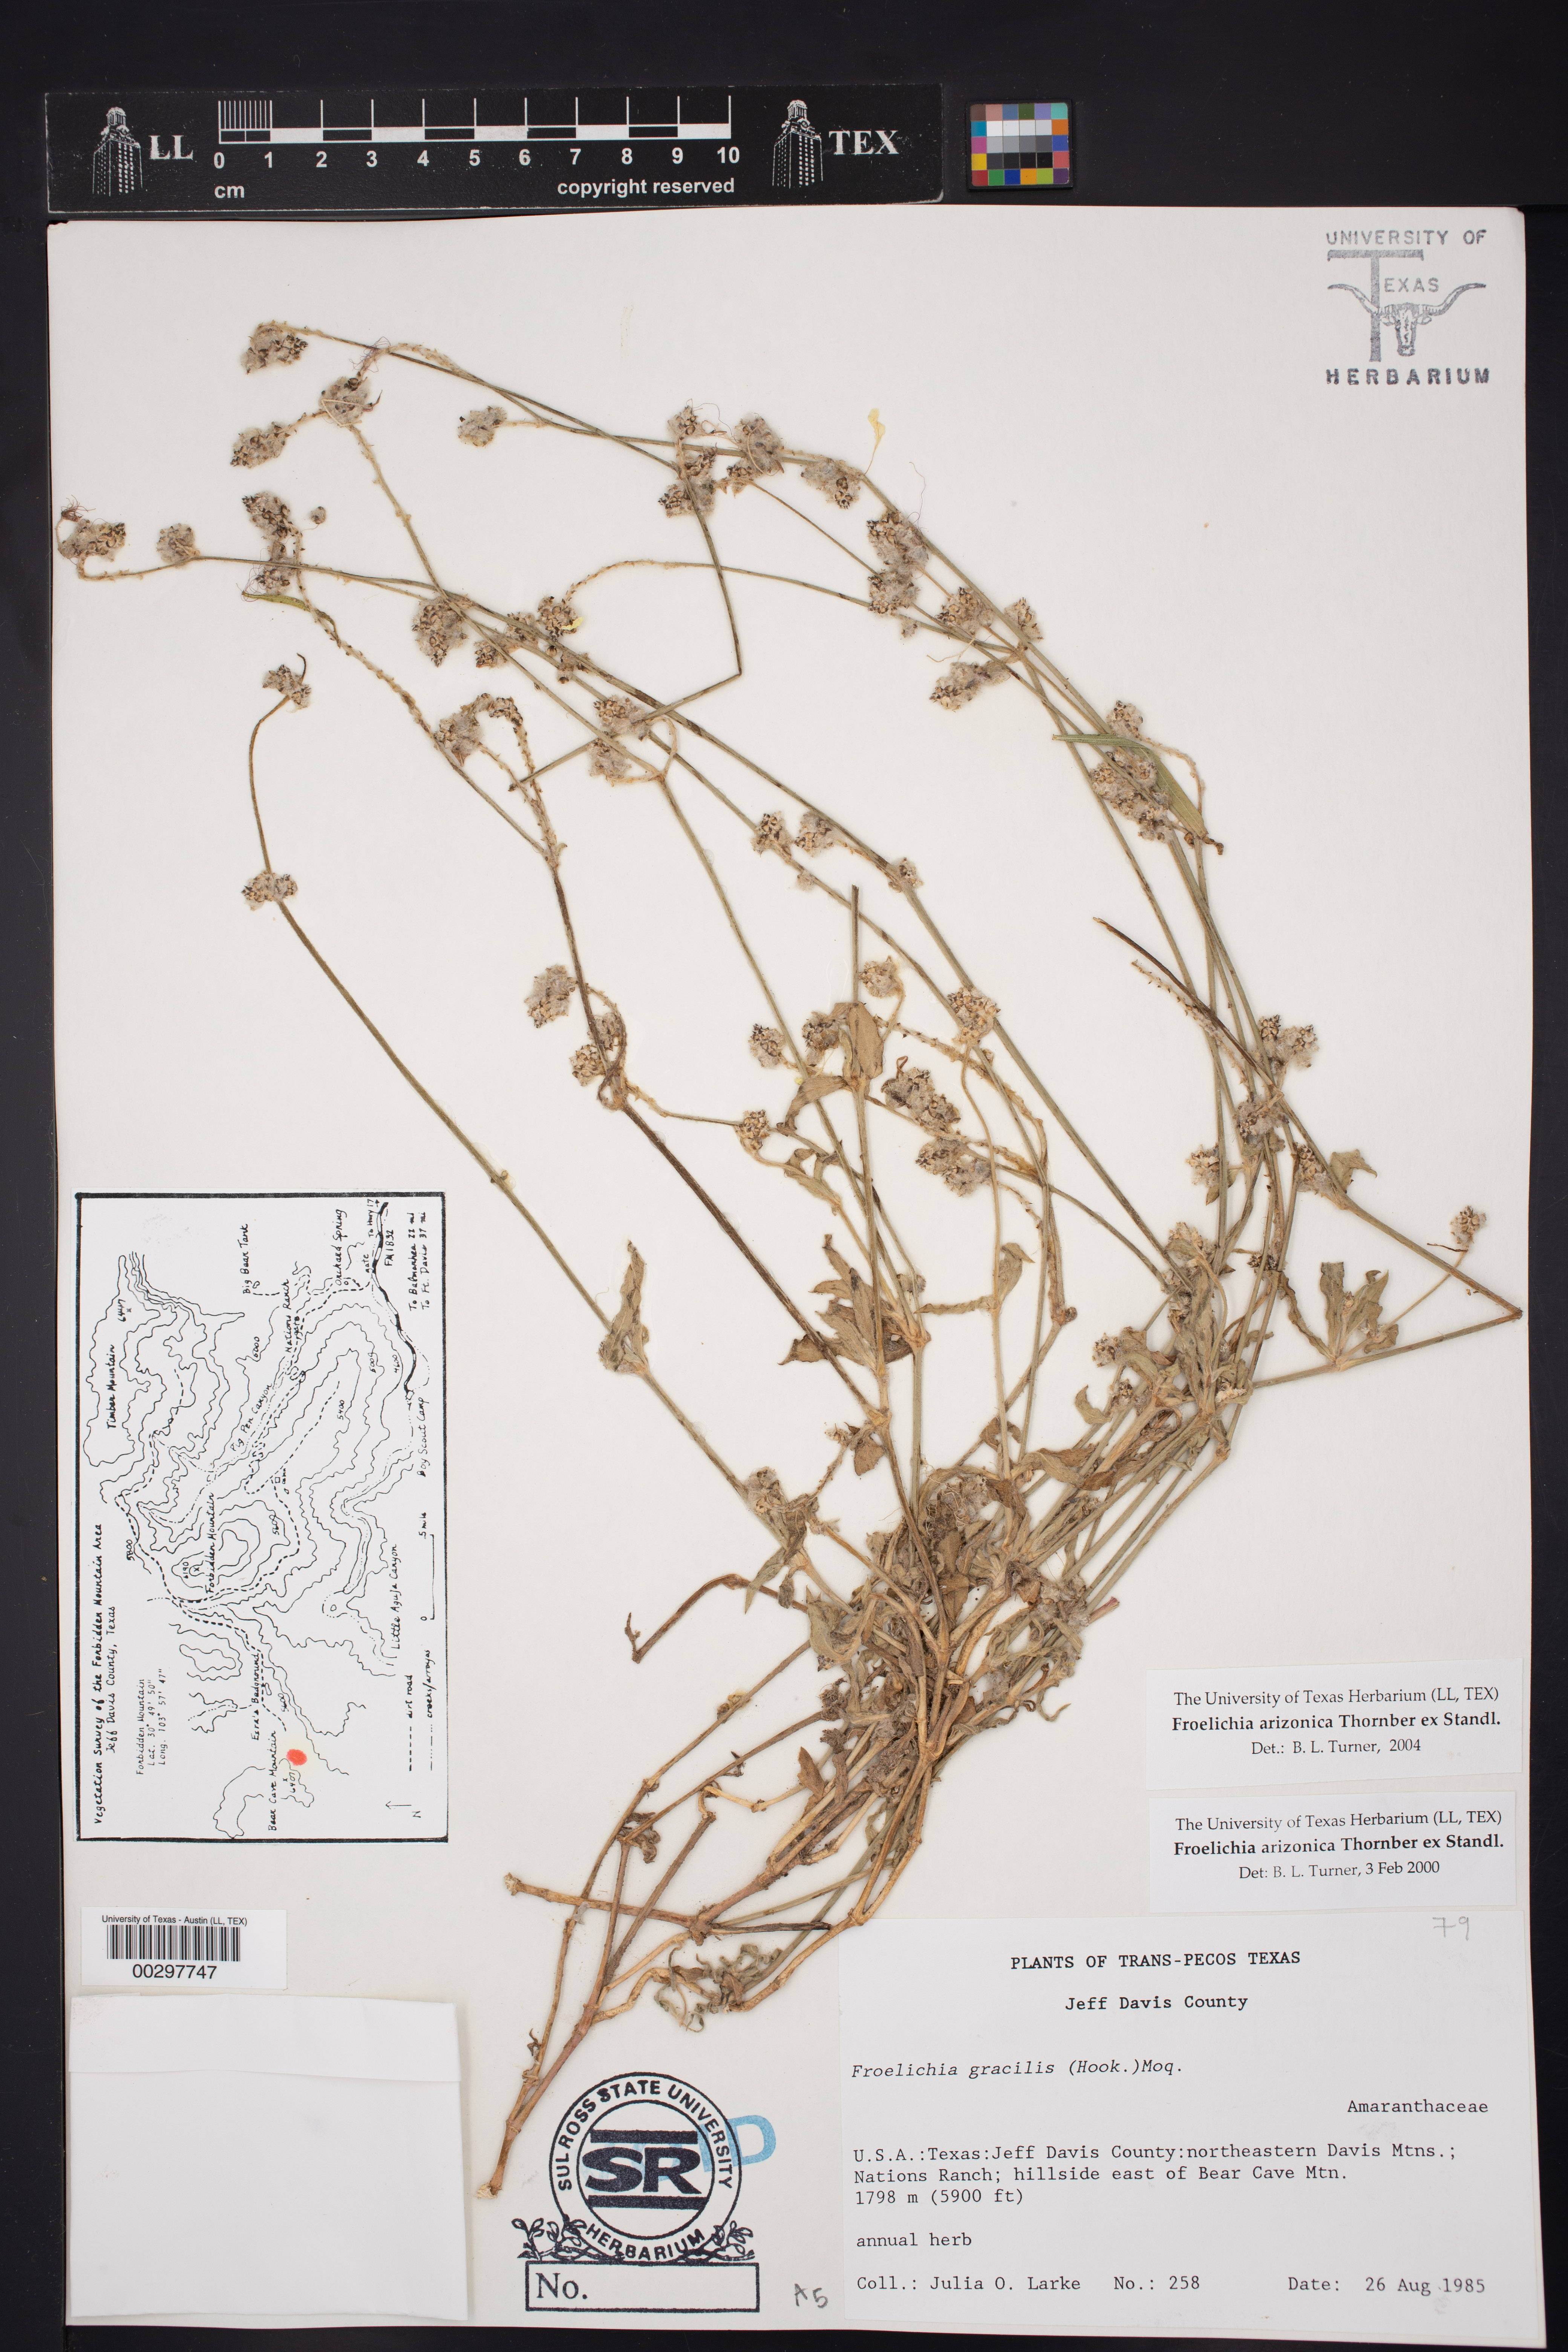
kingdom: Plantae
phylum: Tracheophyta
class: Magnoliopsida
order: Caryophyllales
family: Amaranthaceae
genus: Froelichia
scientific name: Froelichia arizonica
